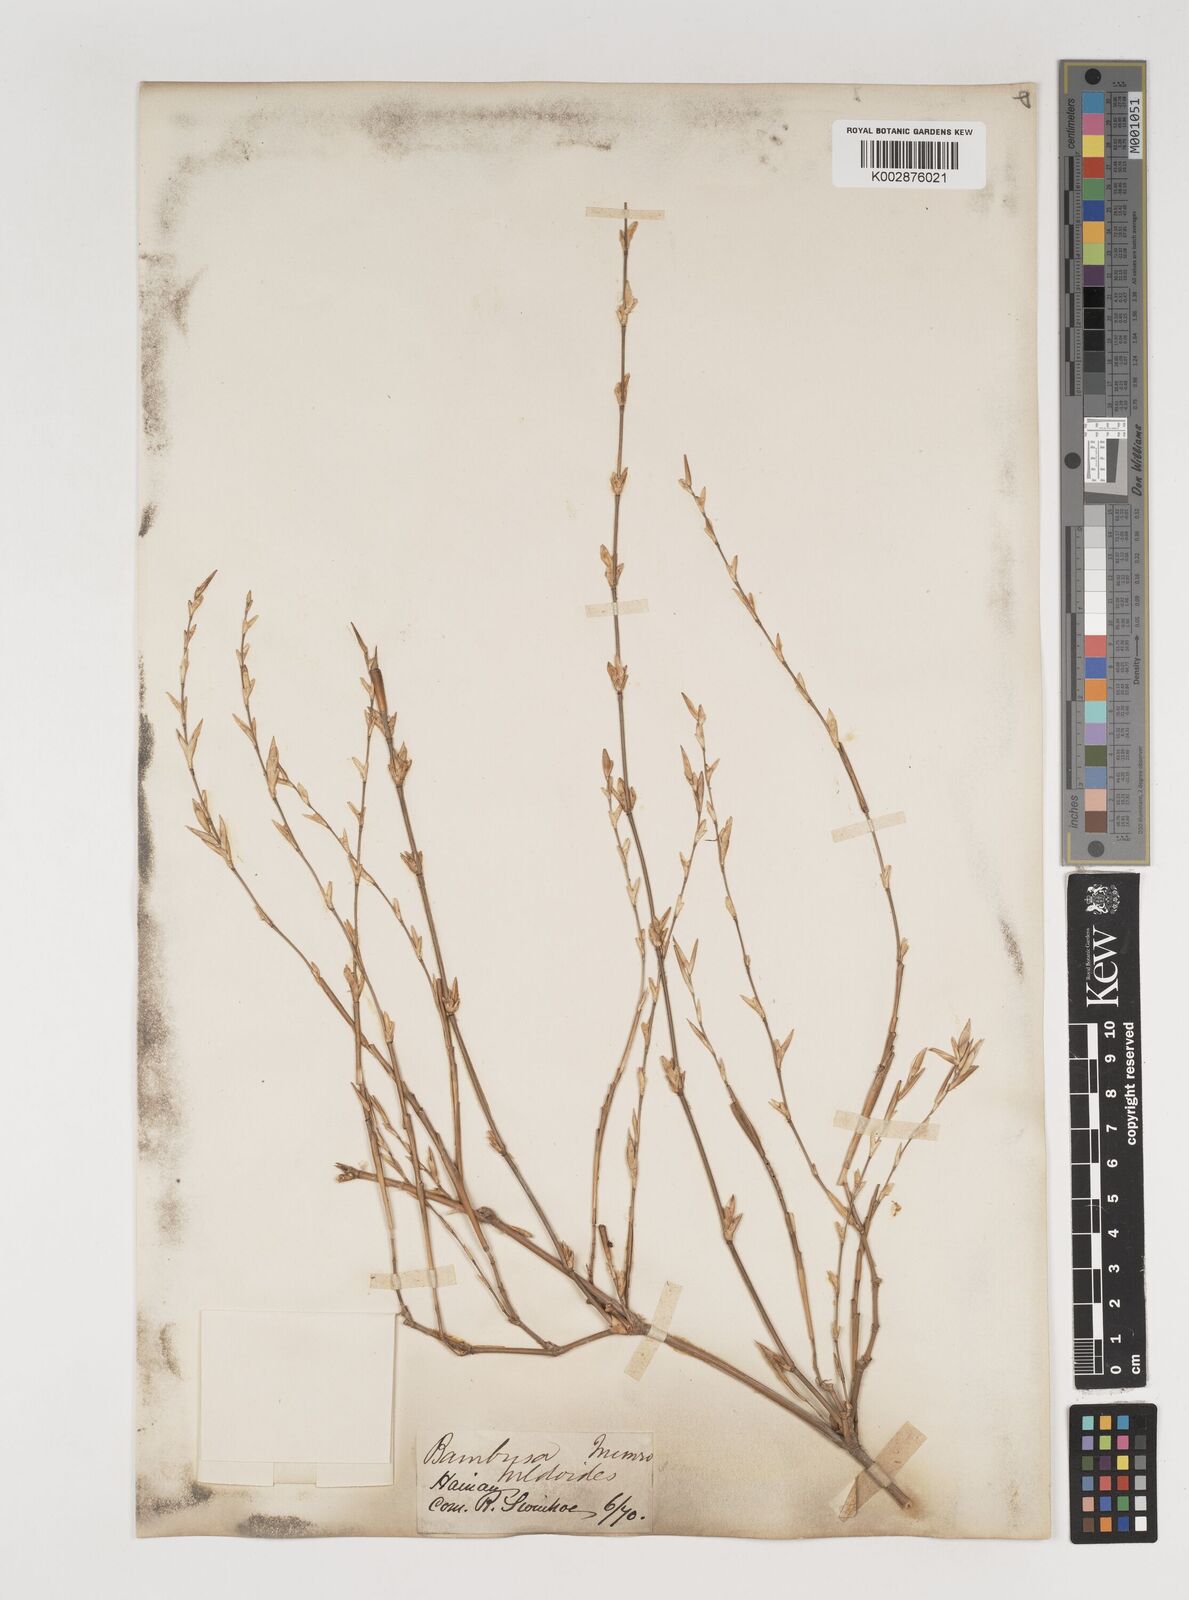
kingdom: Plantae
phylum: Tracheophyta
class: Liliopsida
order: Poales
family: Poaceae
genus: Bambusa
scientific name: Bambusa tulda
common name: Bengal bamboo
